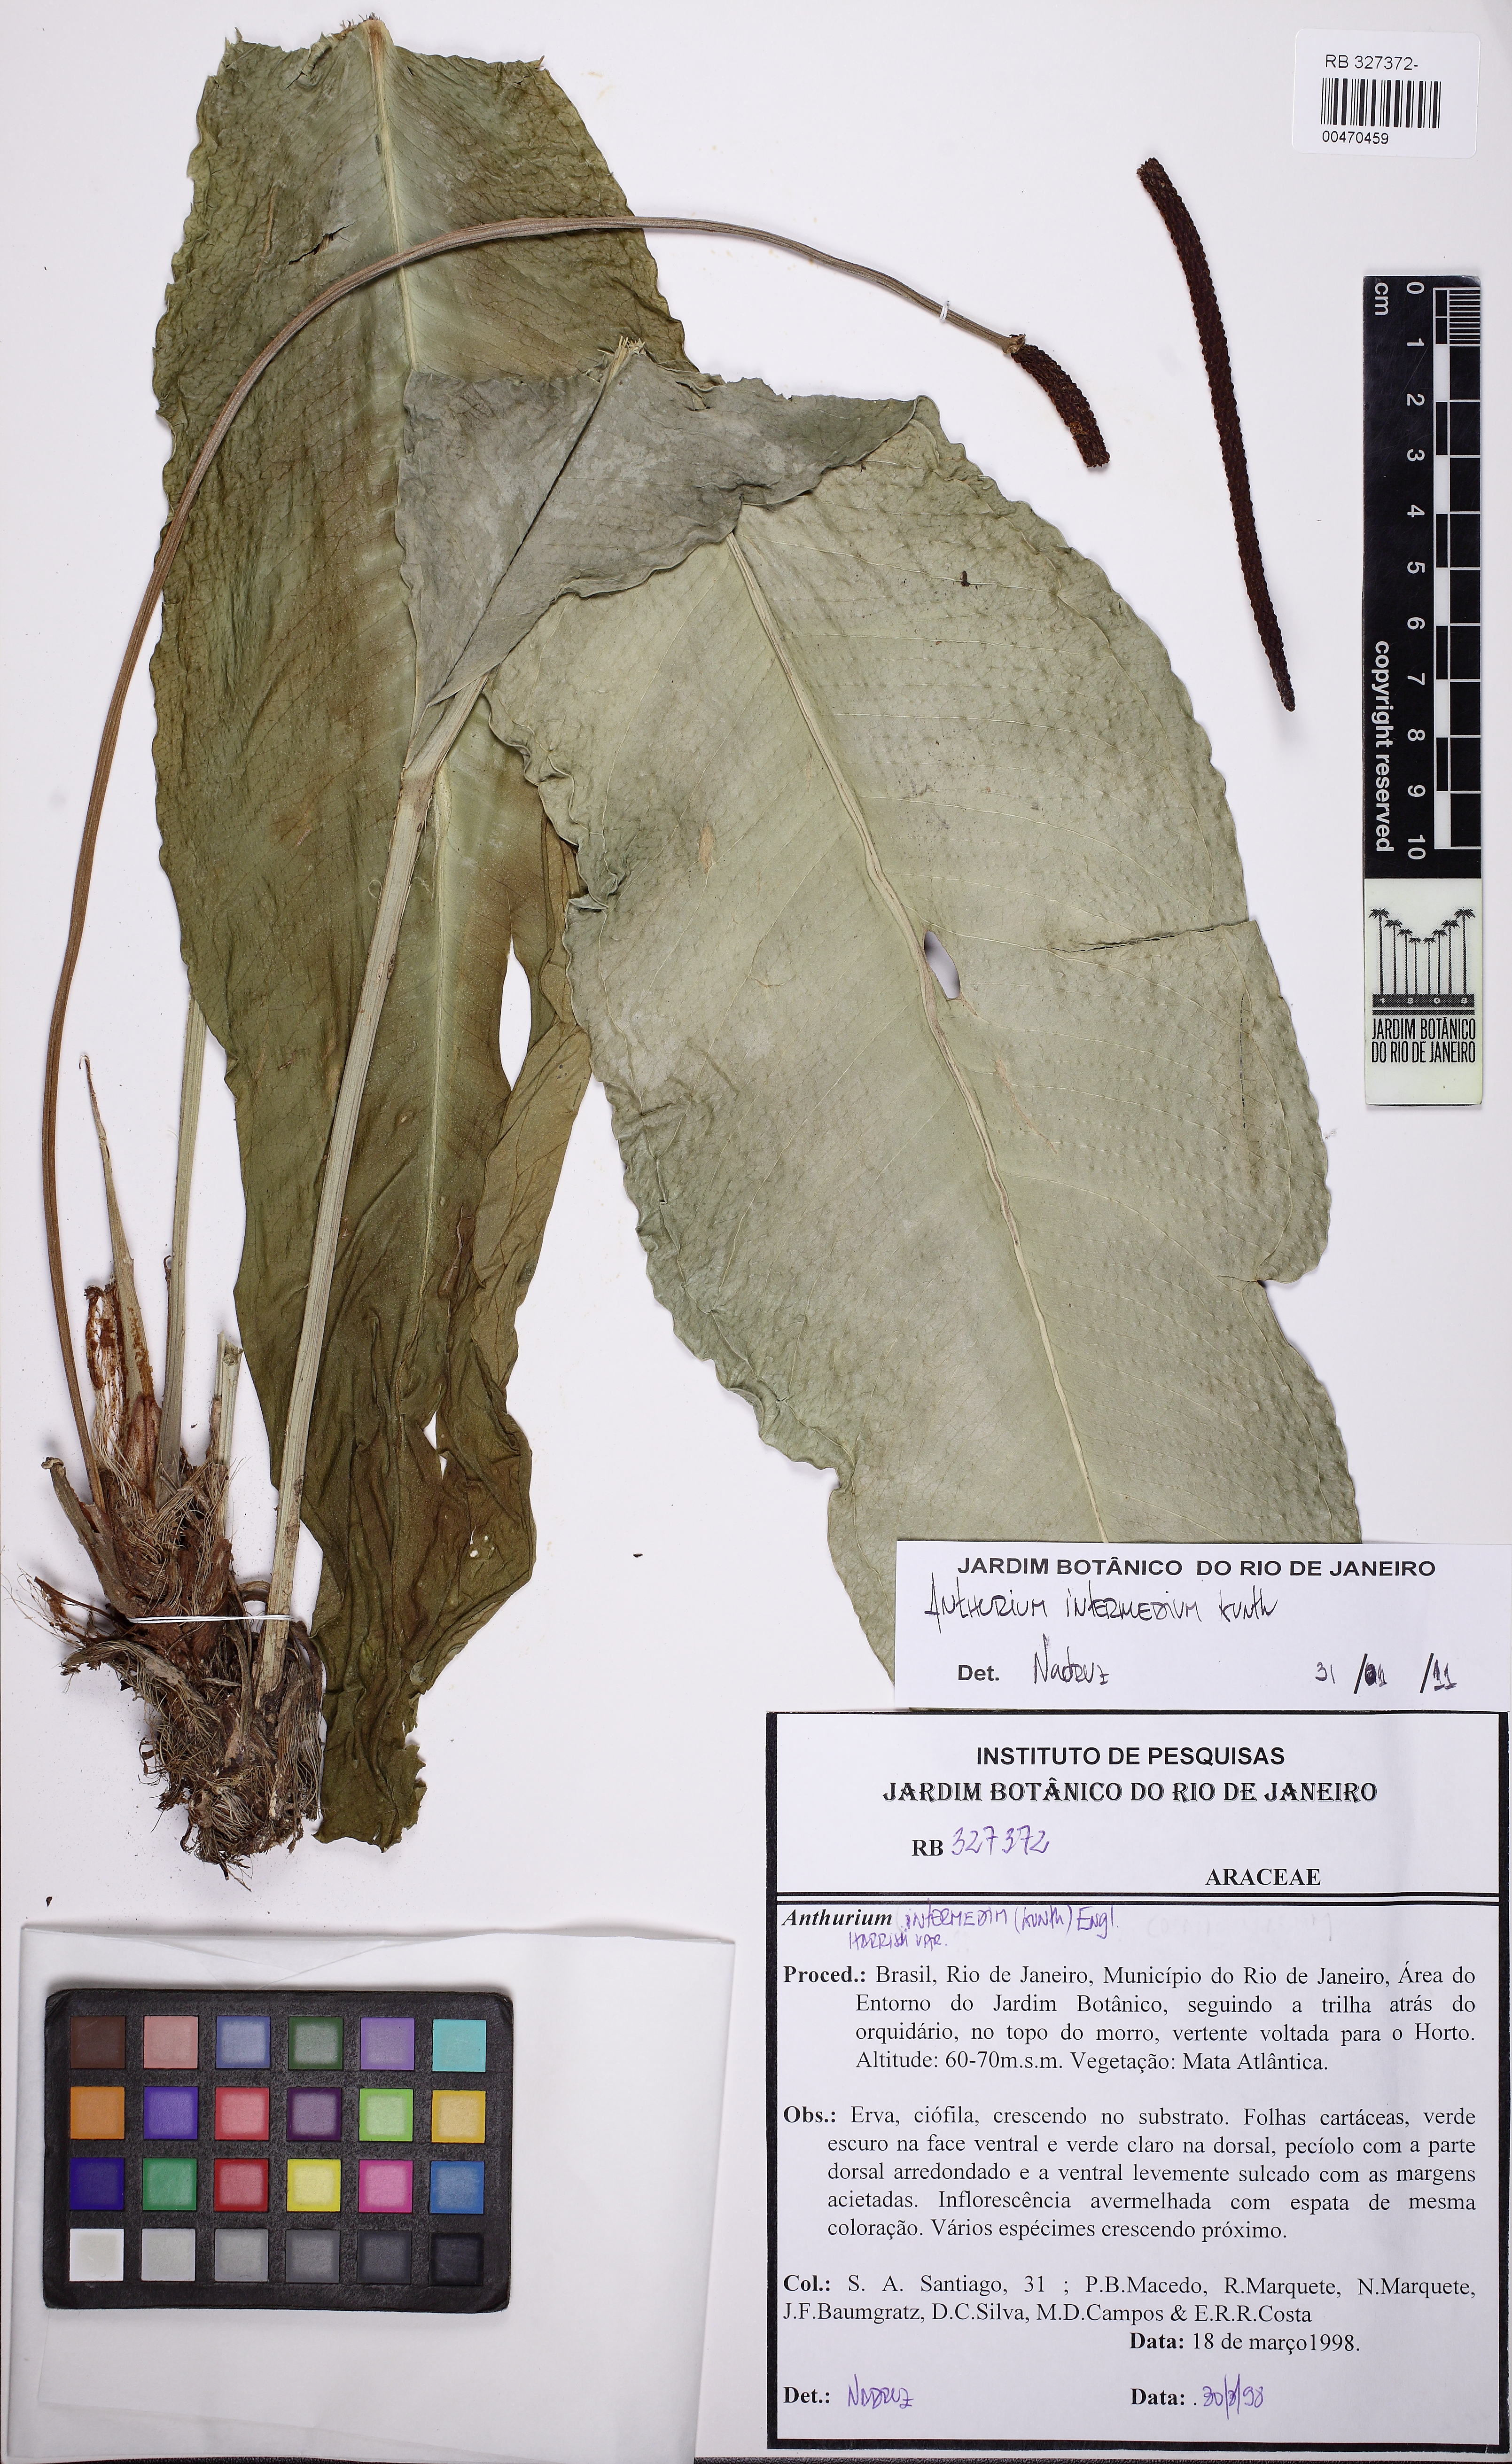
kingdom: Plantae
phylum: Tracheophyta
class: Liliopsida
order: Alismatales
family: Araceae
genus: Anthurium
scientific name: Anthurium intermedium
